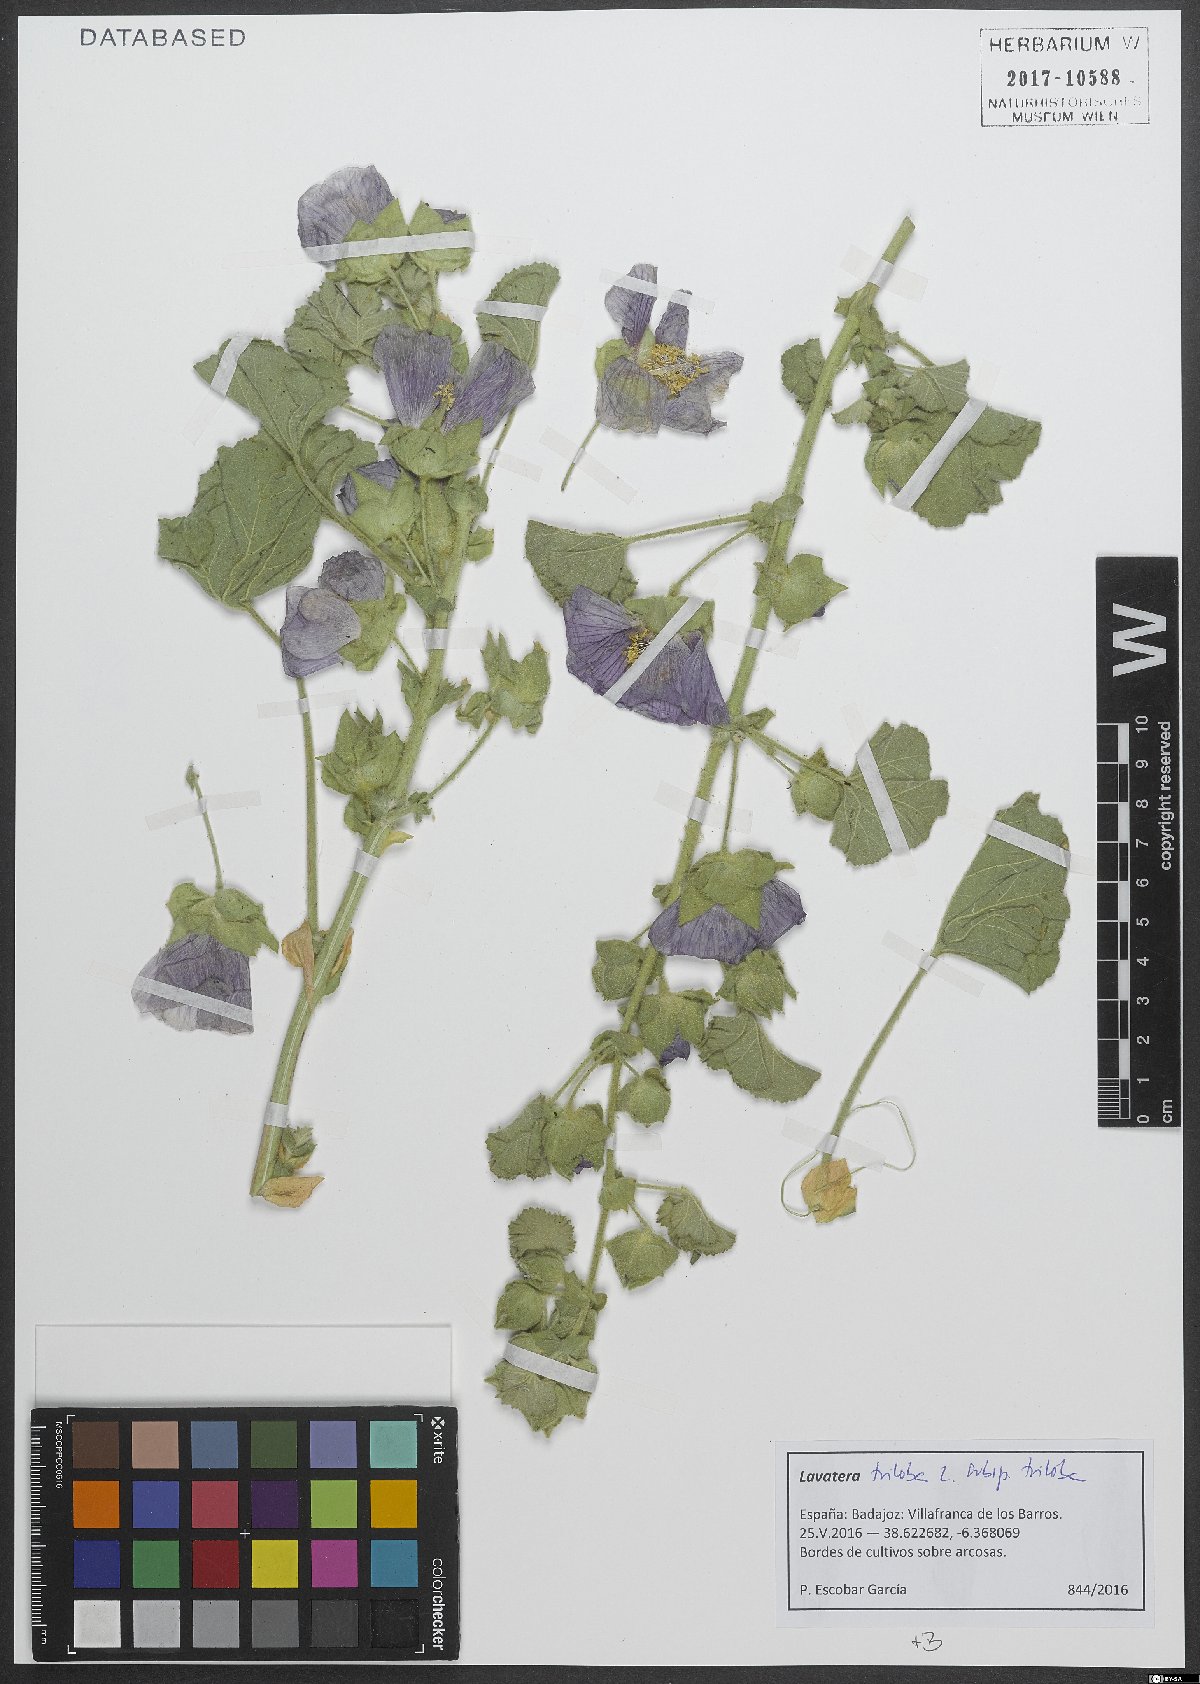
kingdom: Plantae
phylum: Tracheophyta
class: Magnoliopsida
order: Malvales
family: Malvaceae
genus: Malva
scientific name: Malva lusitanica
